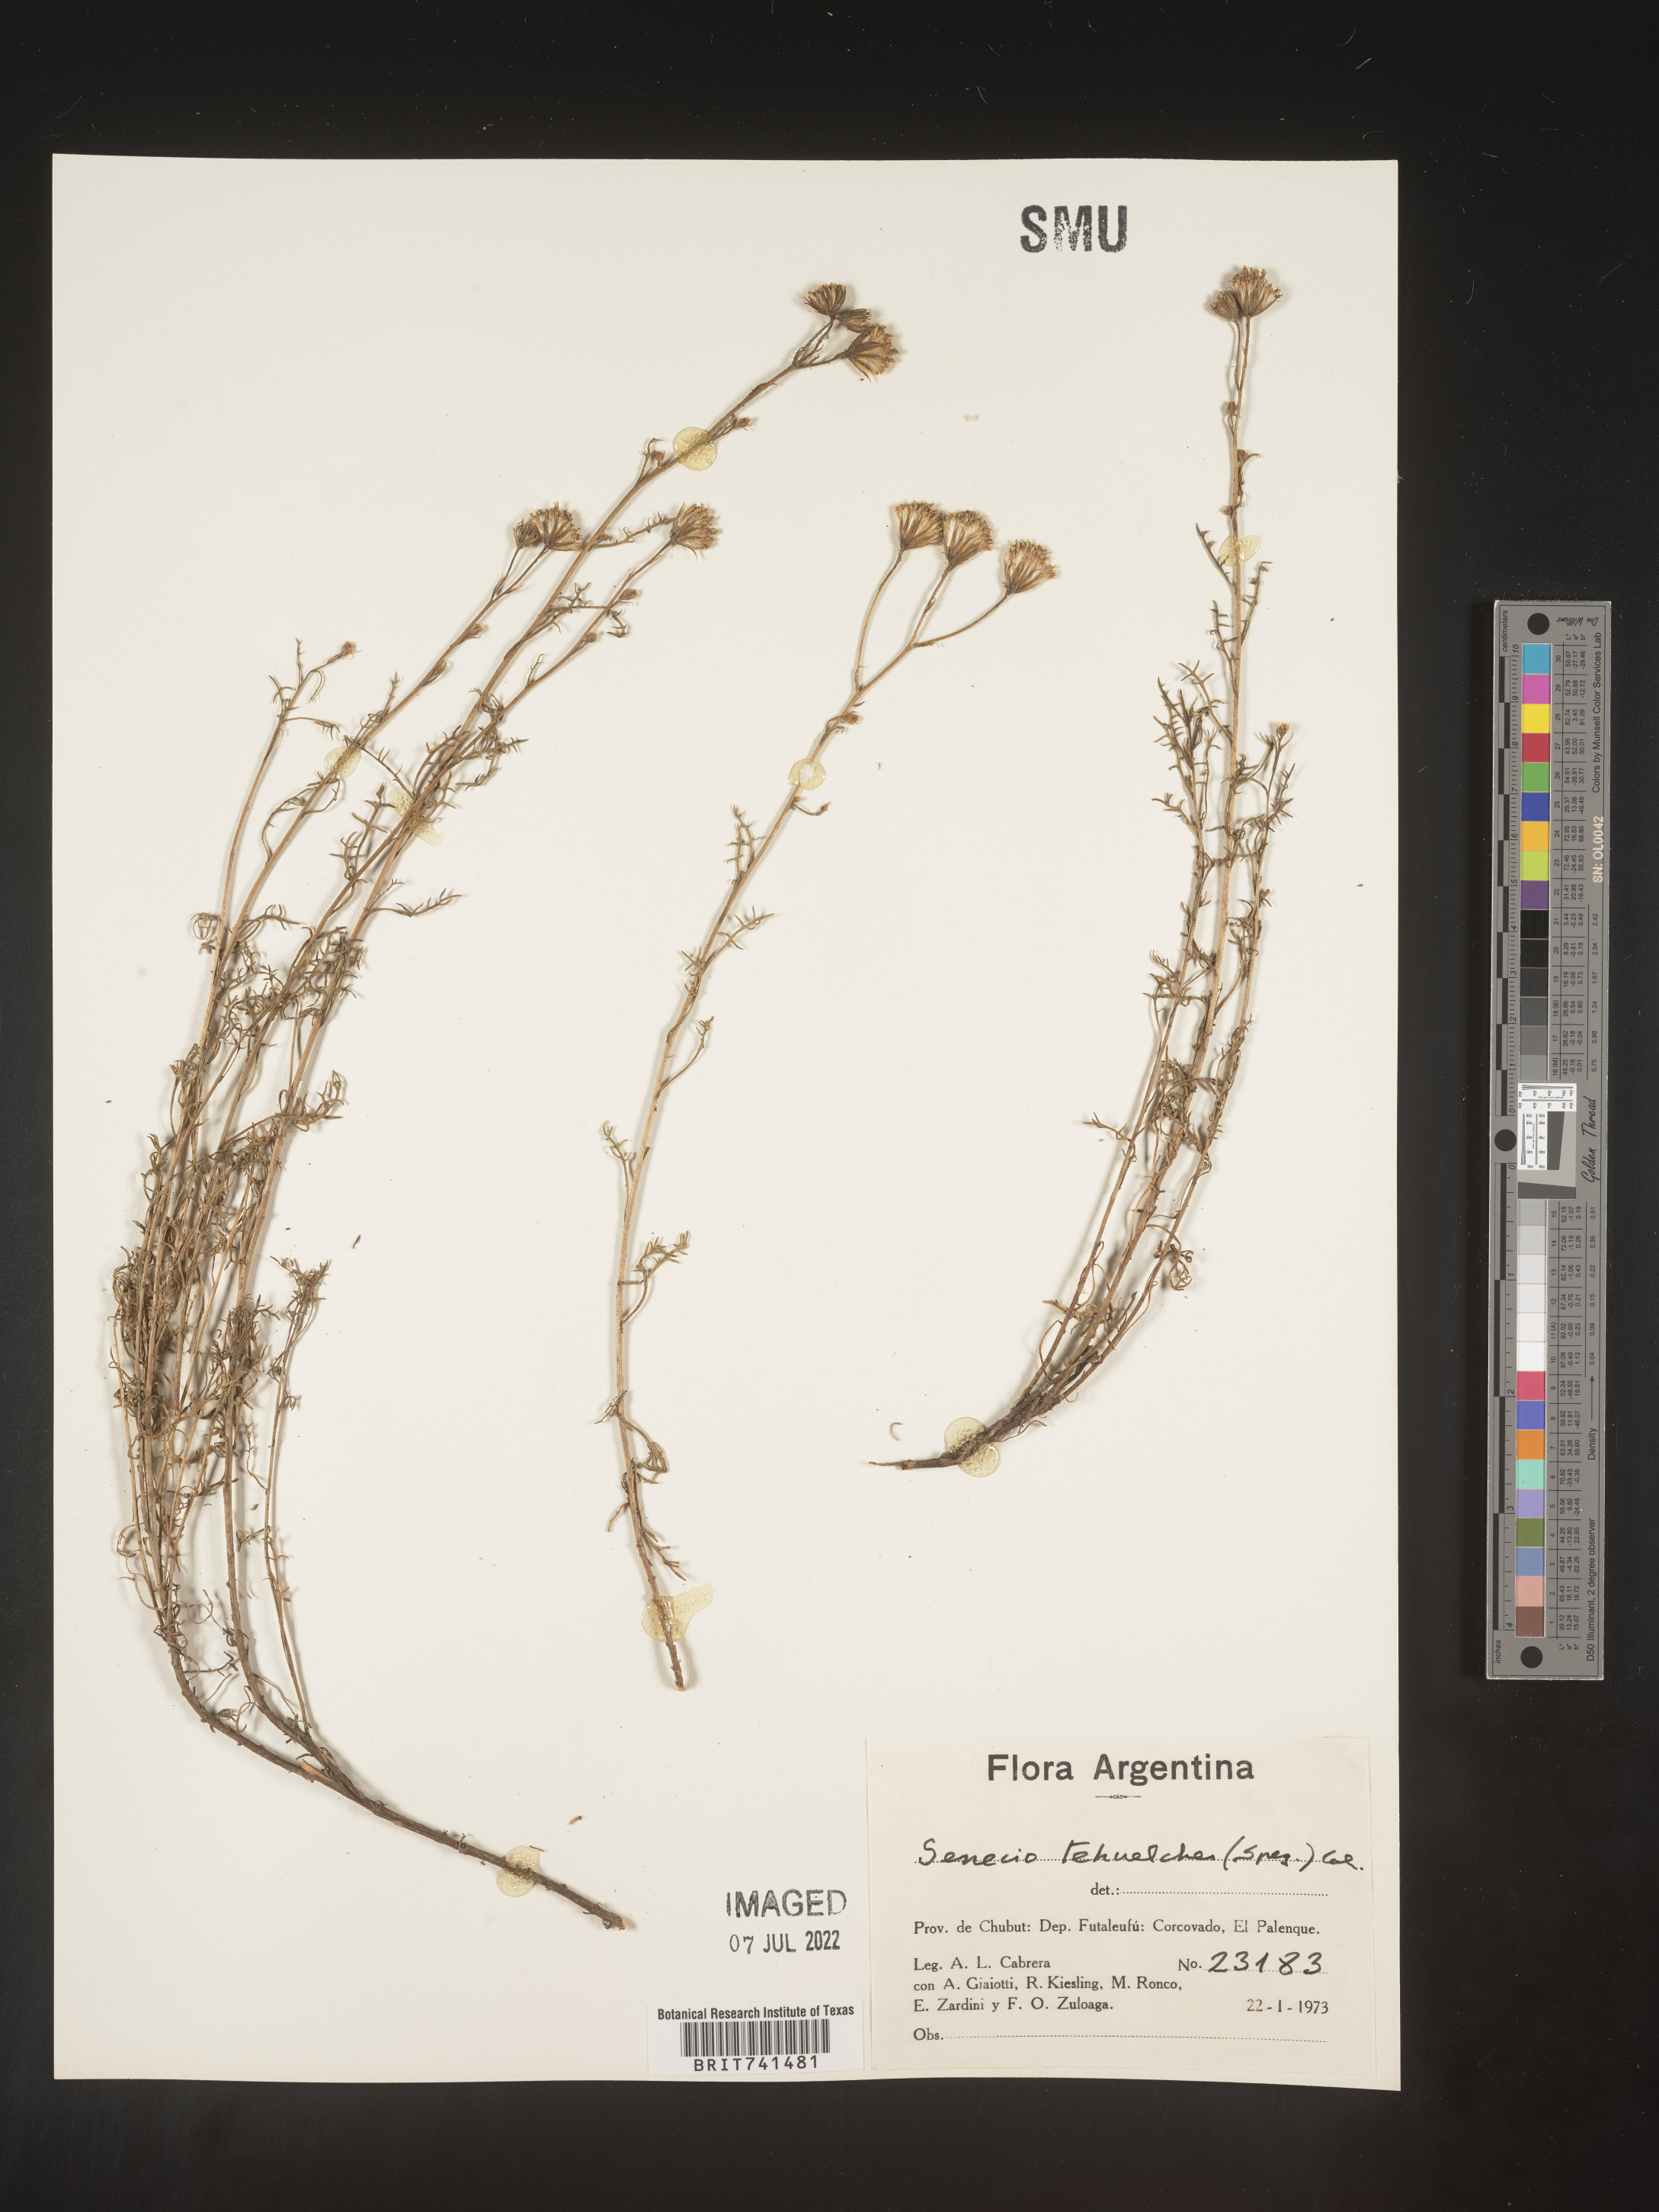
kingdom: Plantae
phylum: Tracheophyta
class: Magnoliopsida
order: Asterales
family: Asteraceae
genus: Senecio
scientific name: Senecio
